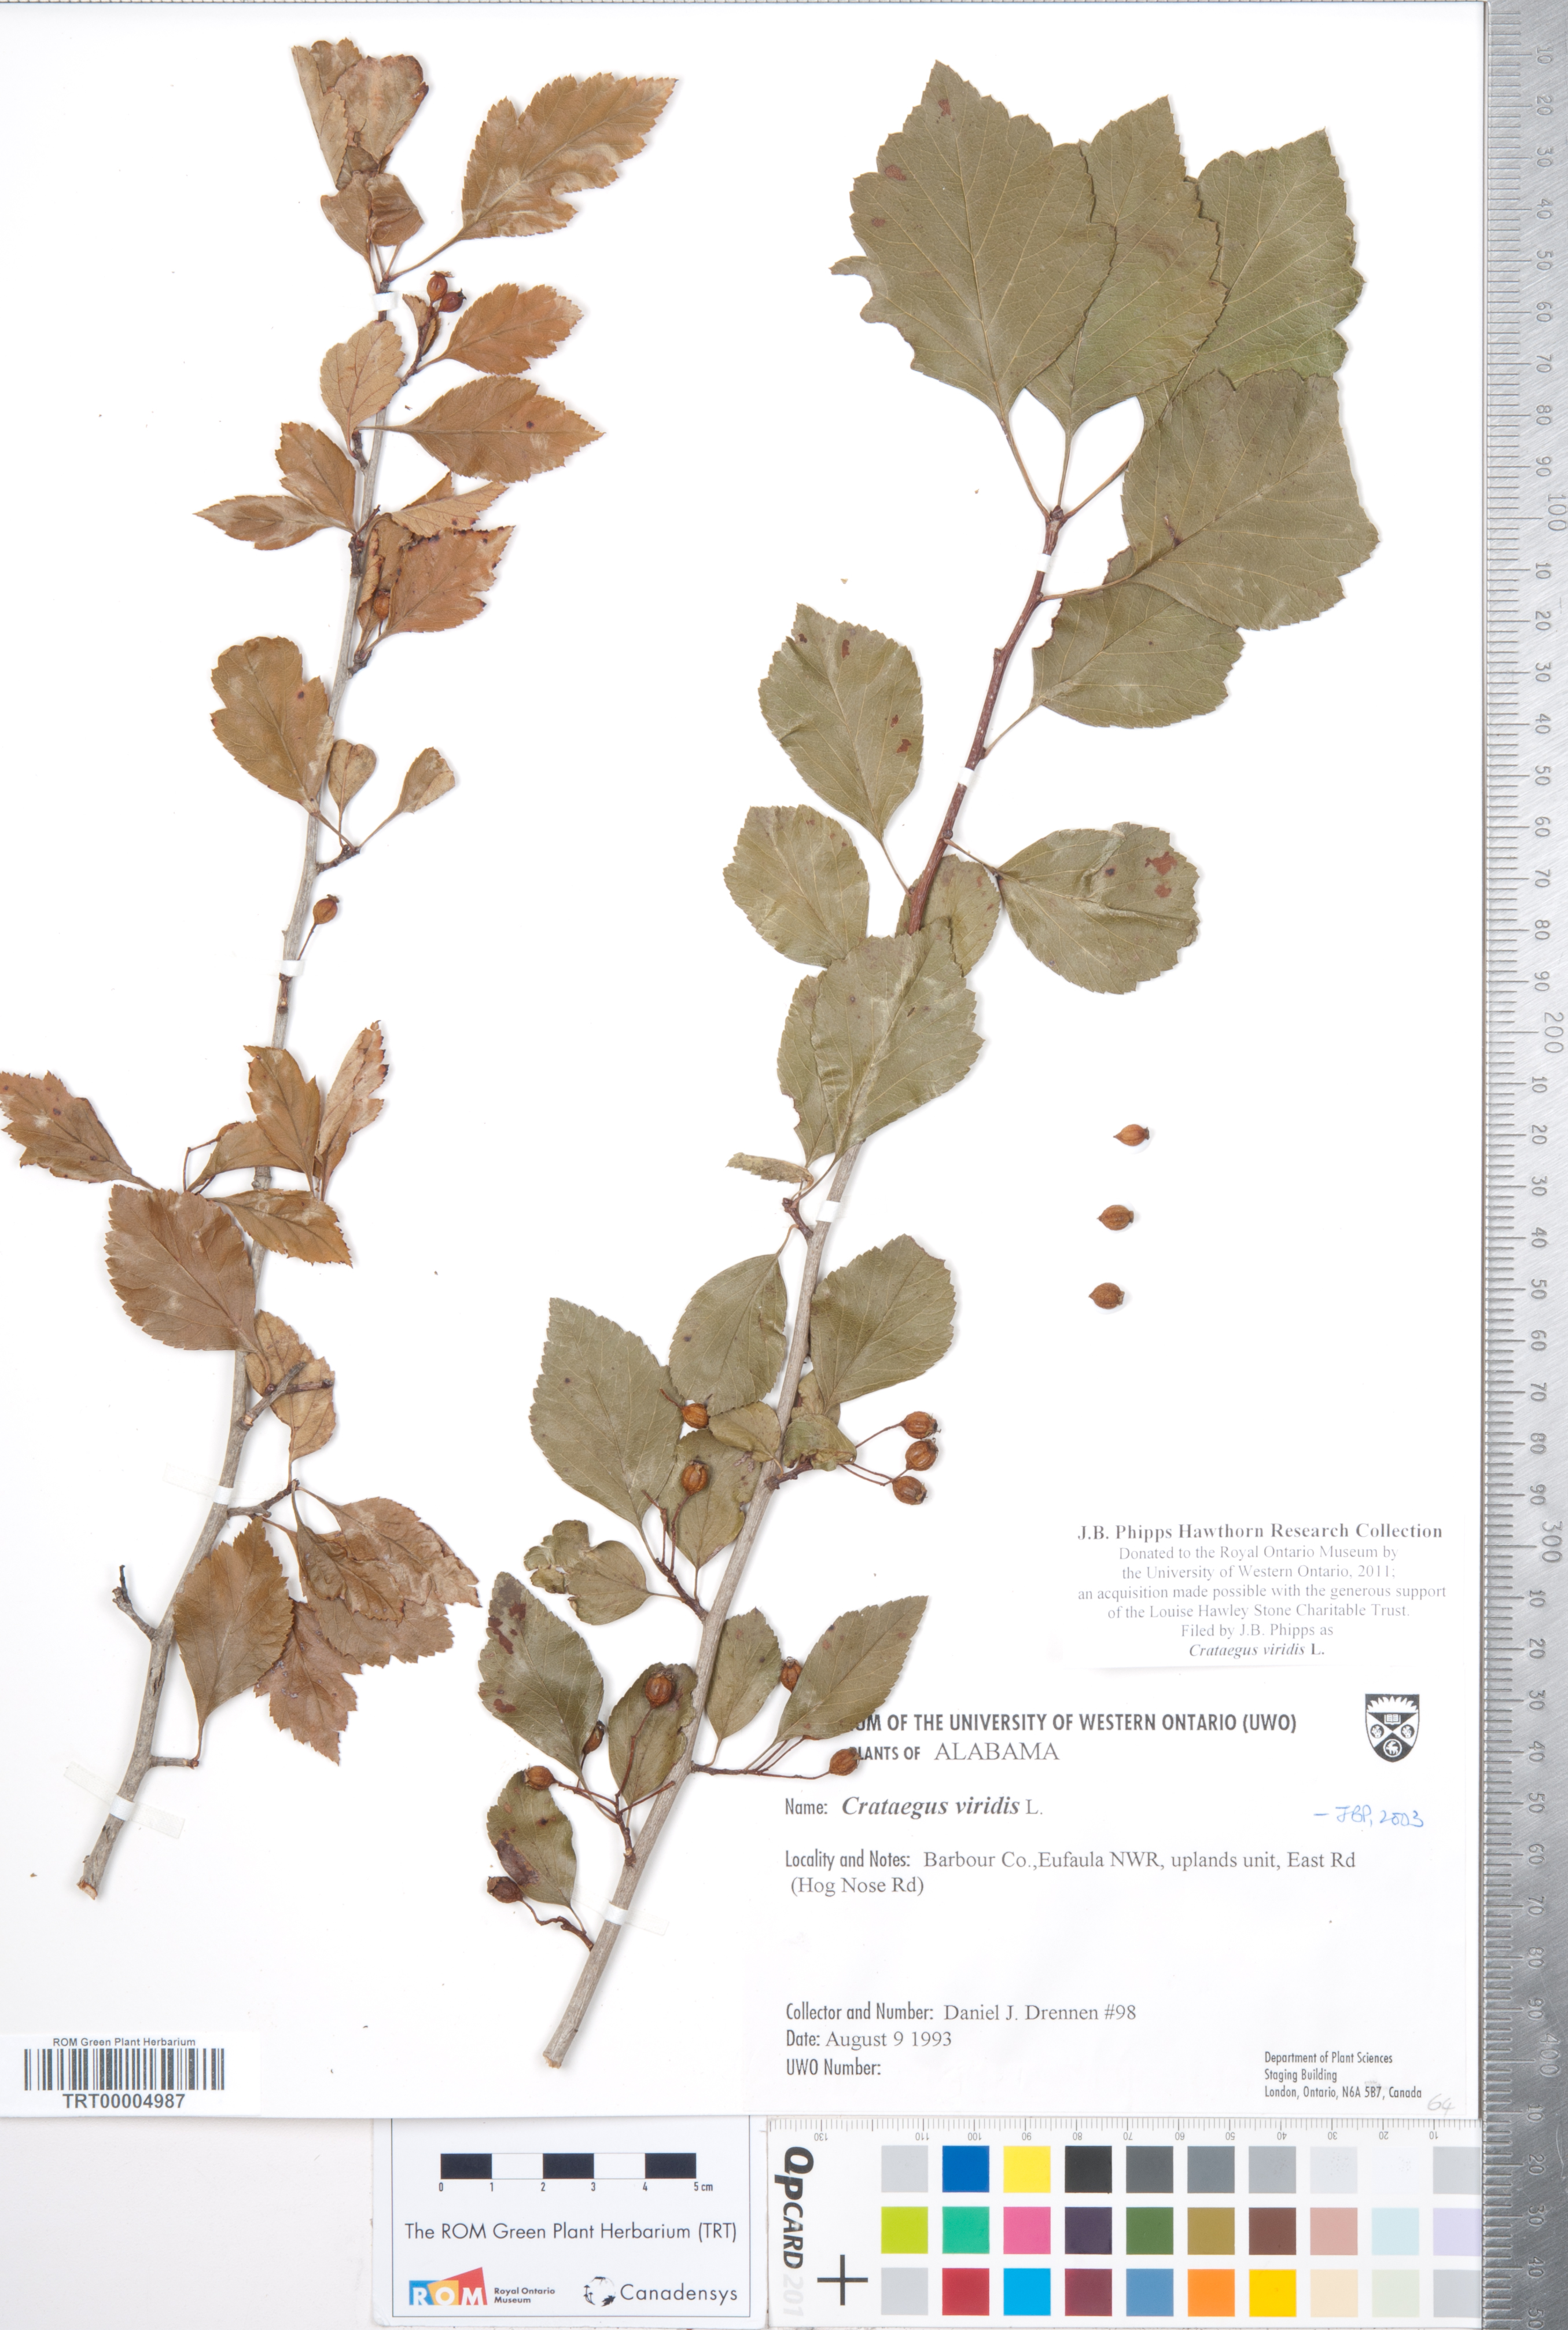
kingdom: Plantae
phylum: Tracheophyta
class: Magnoliopsida
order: Rosales
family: Rosaceae
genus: Crataegus
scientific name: Crataegus viridis
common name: Southernthorn
